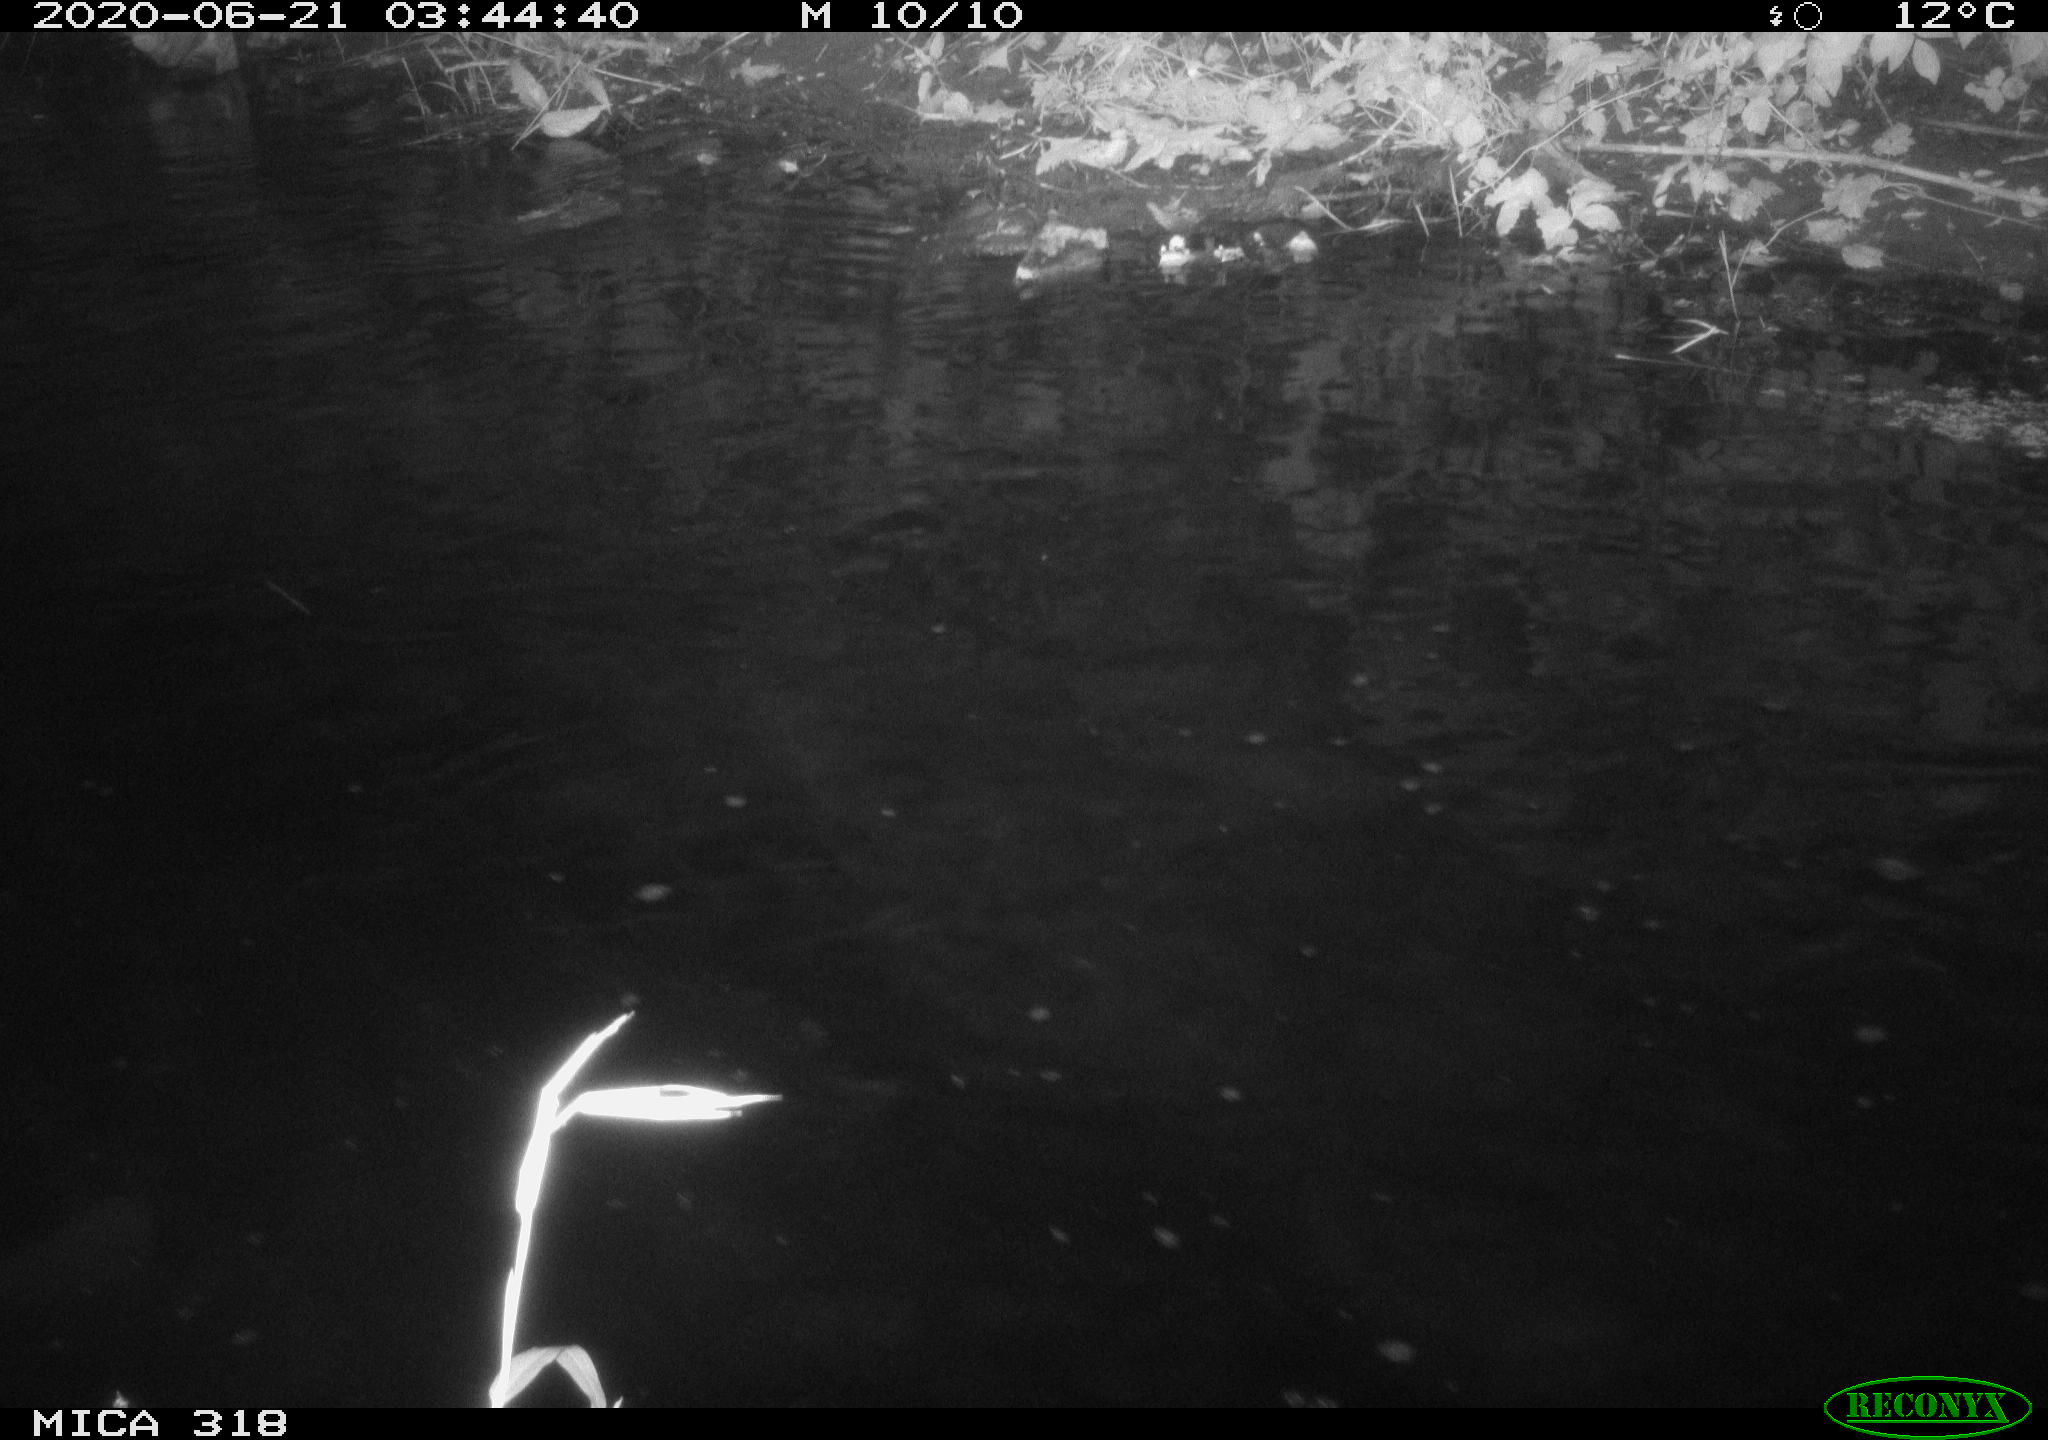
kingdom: Animalia
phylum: Chordata
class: Aves
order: Anseriformes
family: Anatidae
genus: Anas
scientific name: Anas platyrhynchos
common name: Mallard
